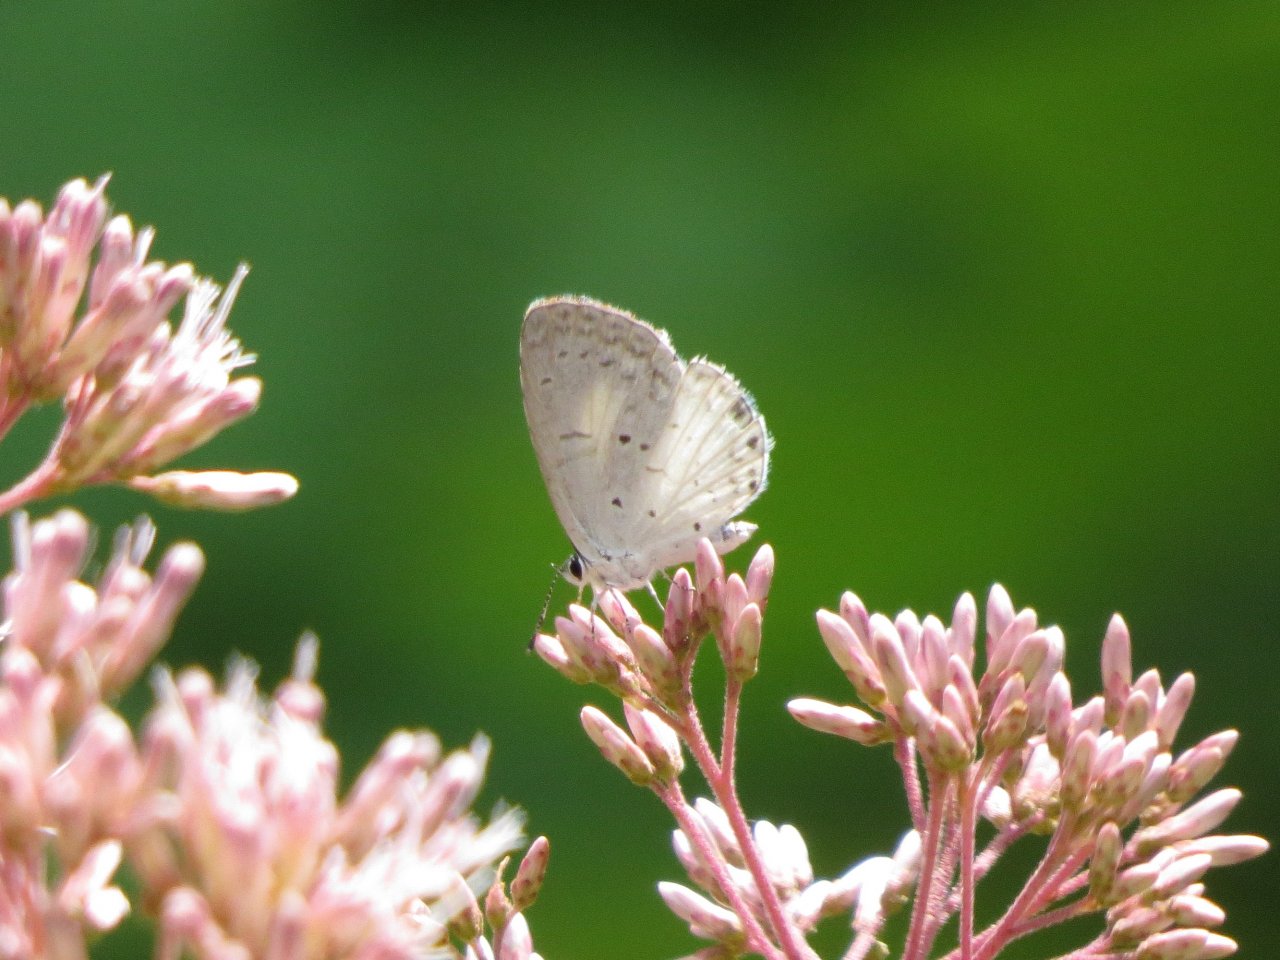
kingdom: Animalia
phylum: Arthropoda
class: Insecta
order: Lepidoptera
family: Lycaenidae
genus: Cyaniris
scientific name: Cyaniris neglecta
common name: Summer Azure
